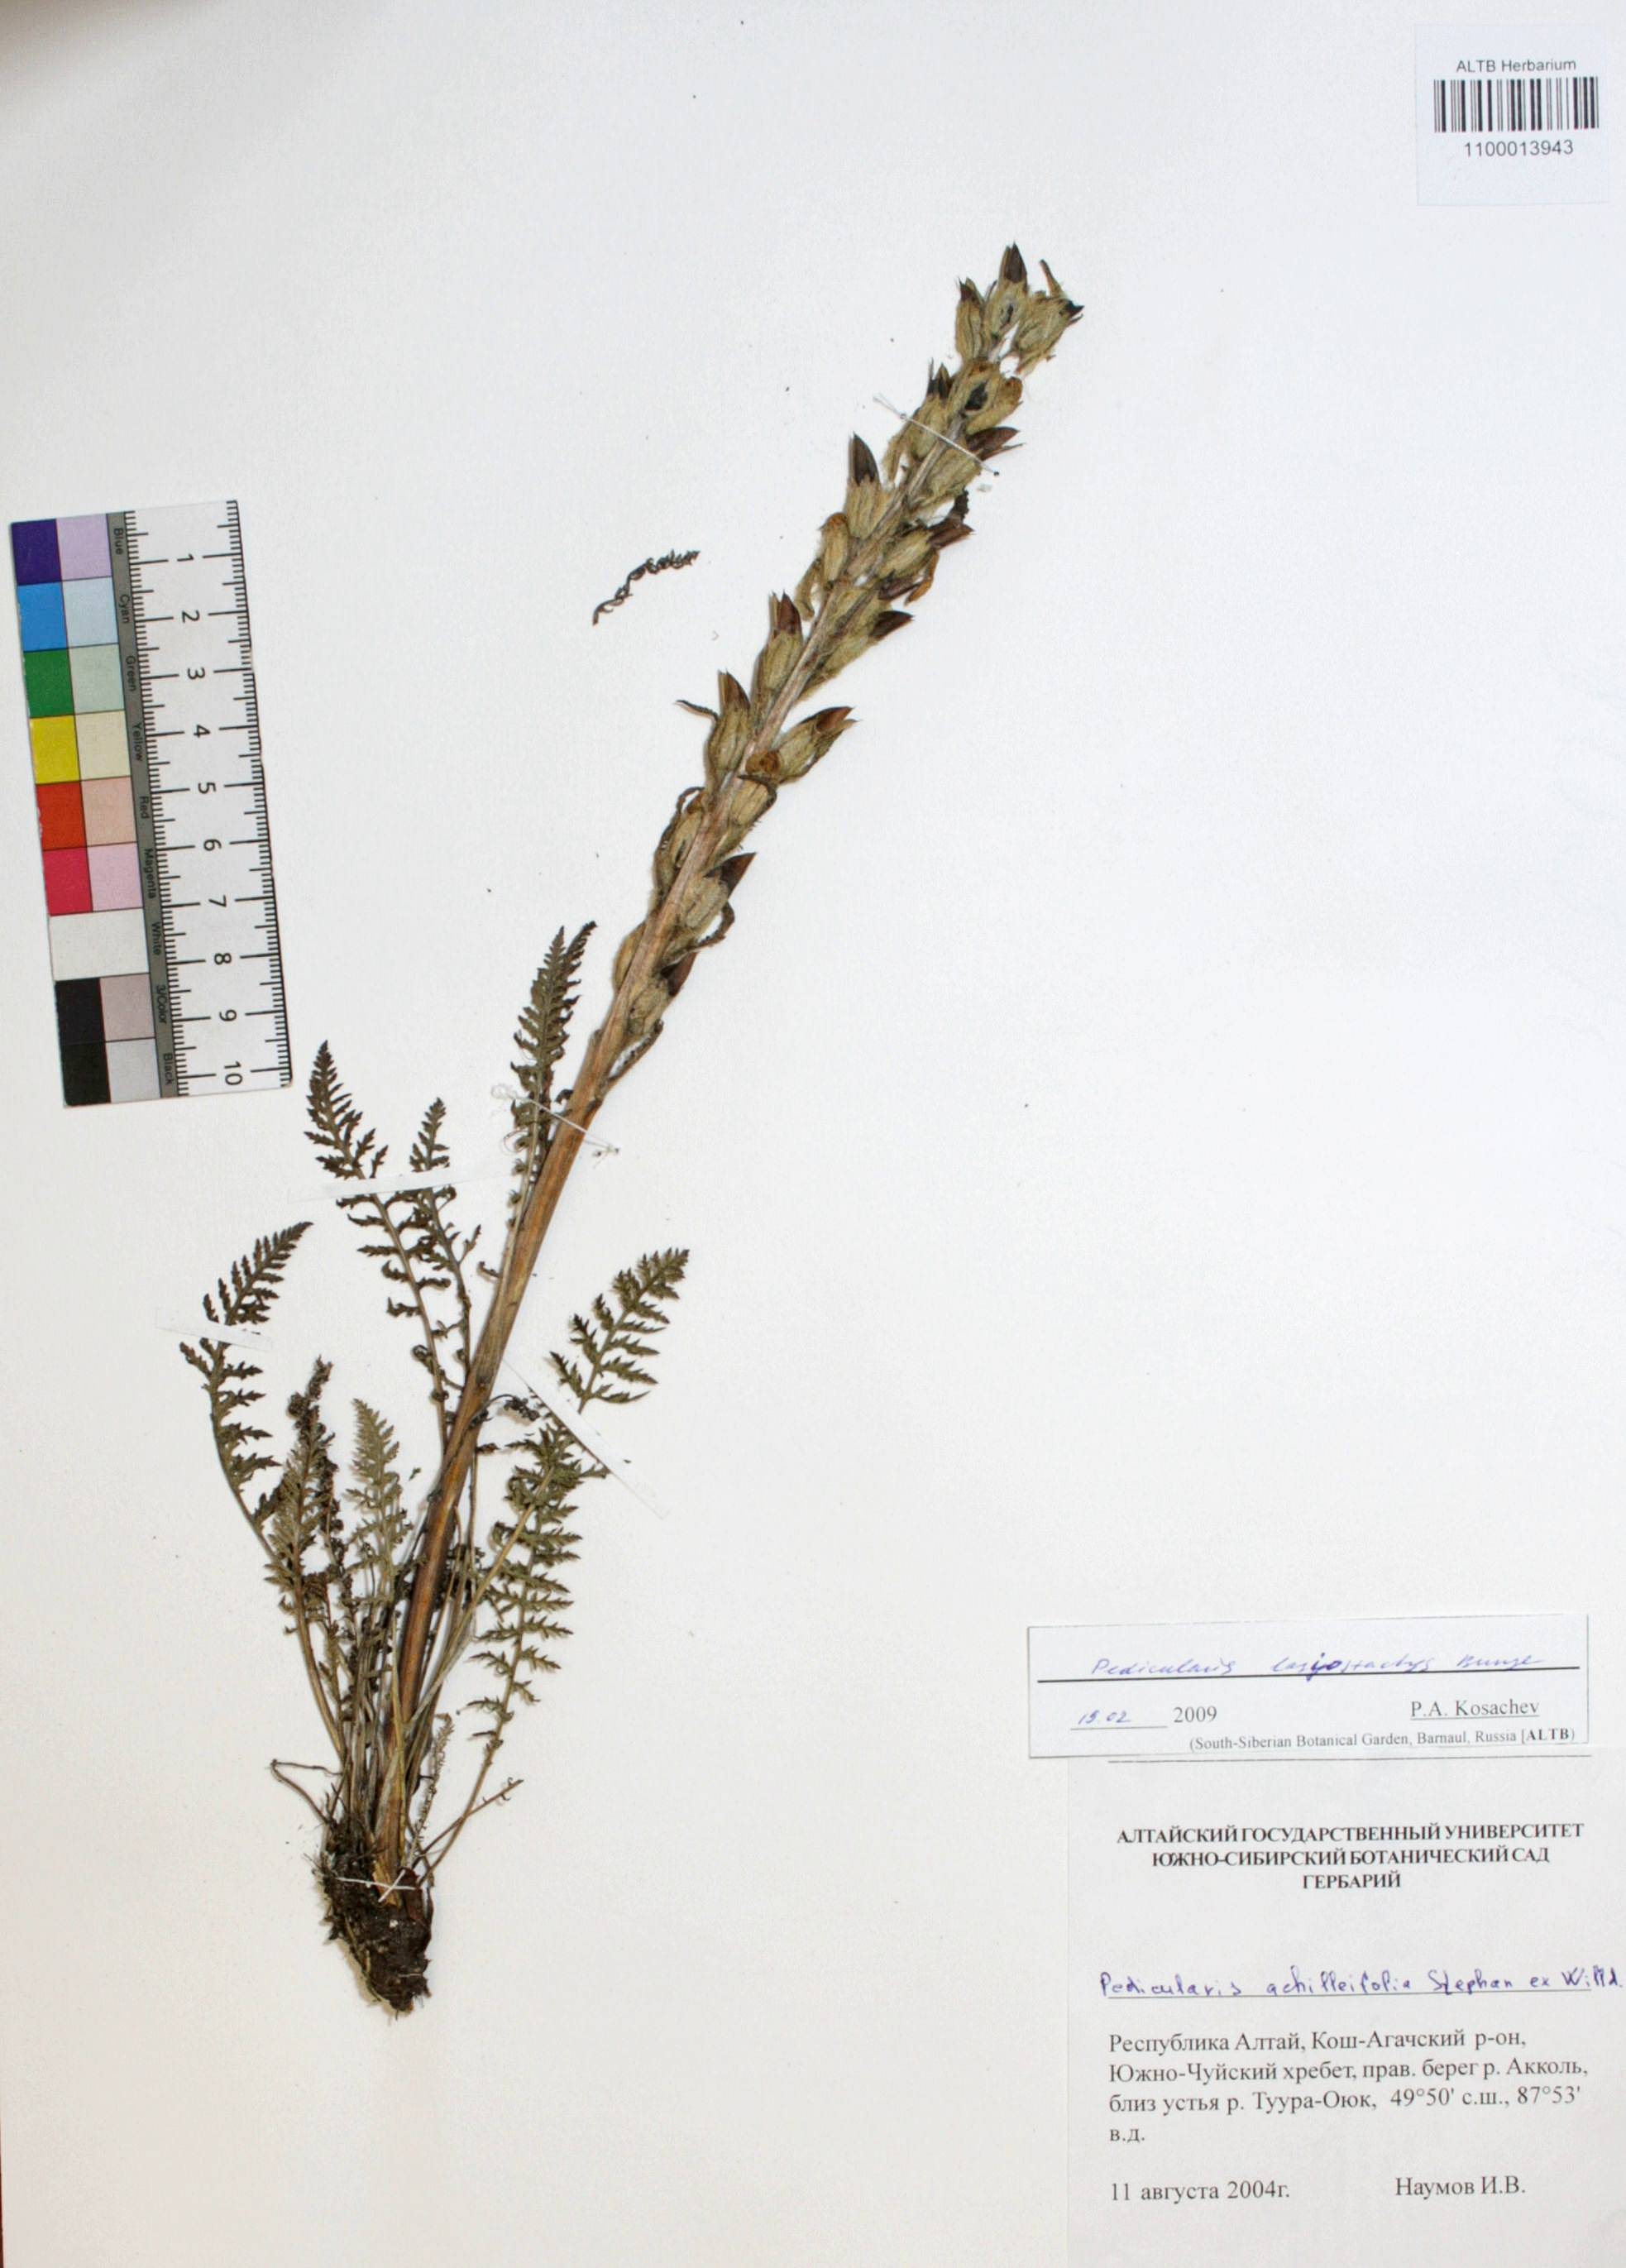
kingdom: Plantae
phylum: Tracheophyta
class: Magnoliopsida
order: Lamiales
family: Orobanchaceae
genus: Pedicularis
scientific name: Pedicularis achilleifolia
